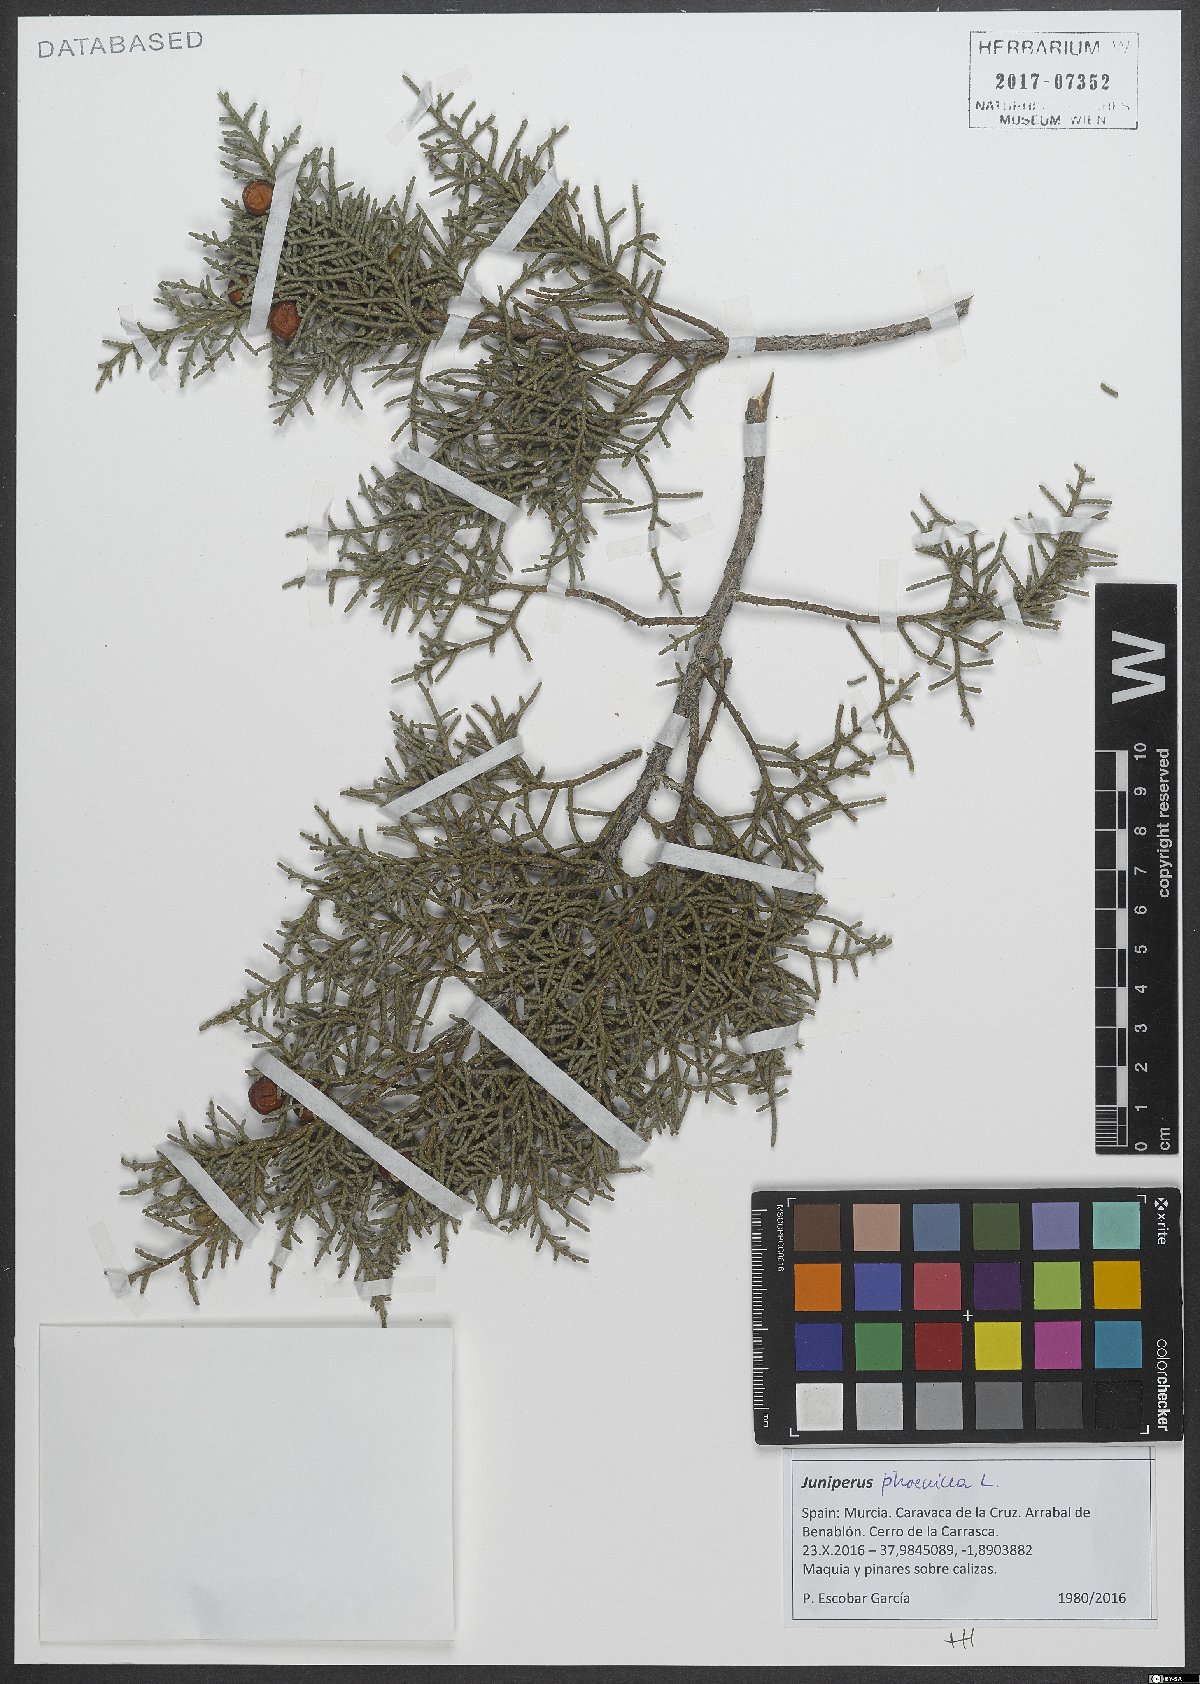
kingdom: Plantae
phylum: Tracheophyta
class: Pinopsida
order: Pinales
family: Cupressaceae
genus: Juniperus
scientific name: Juniperus phoenicea
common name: Phoenician juniper
